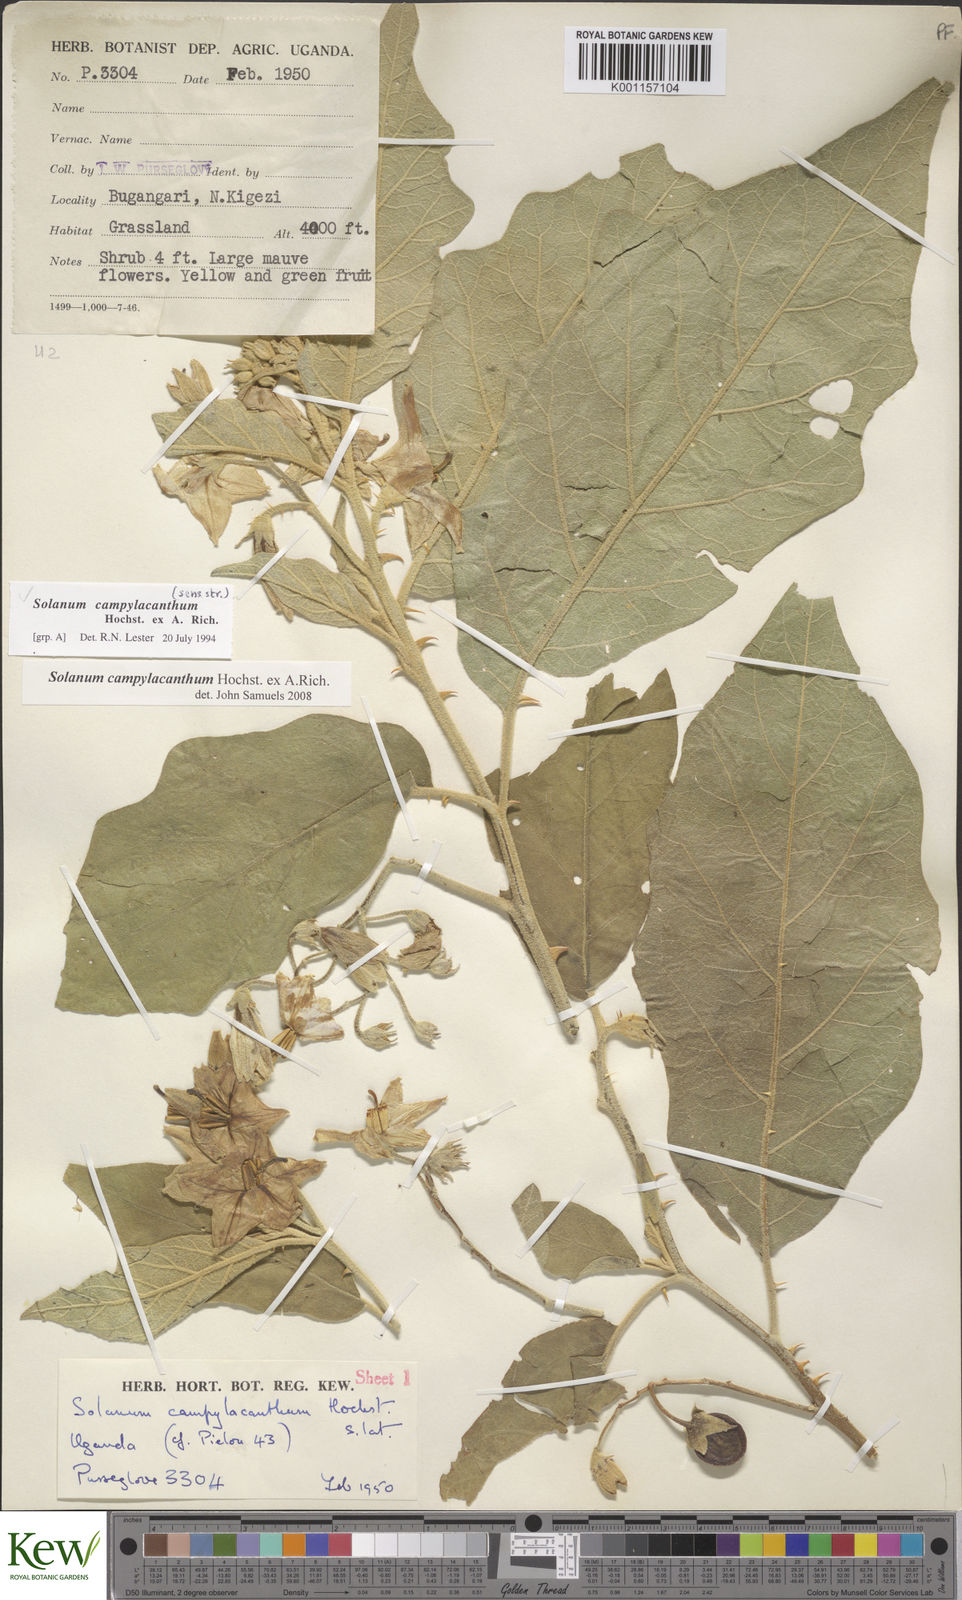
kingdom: Plantae
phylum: Tracheophyta
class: Magnoliopsida
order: Solanales
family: Solanaceae
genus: Solanum
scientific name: Solanum campylacanthum
